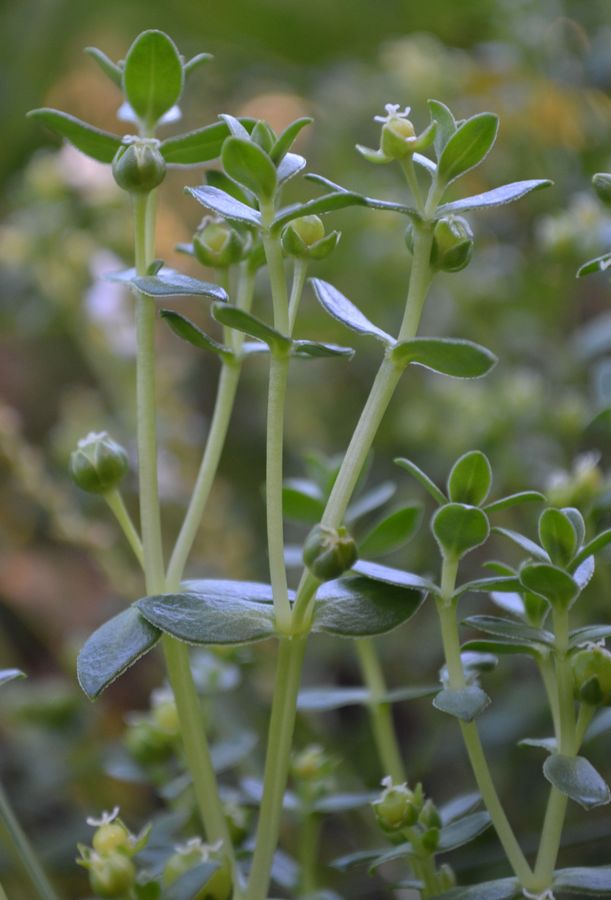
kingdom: Plantae
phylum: Tracheophyta
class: Magnoliopsida
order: Caryophyllales
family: Caryophyllaceae
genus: Honckenya
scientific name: Honckenya peploides
